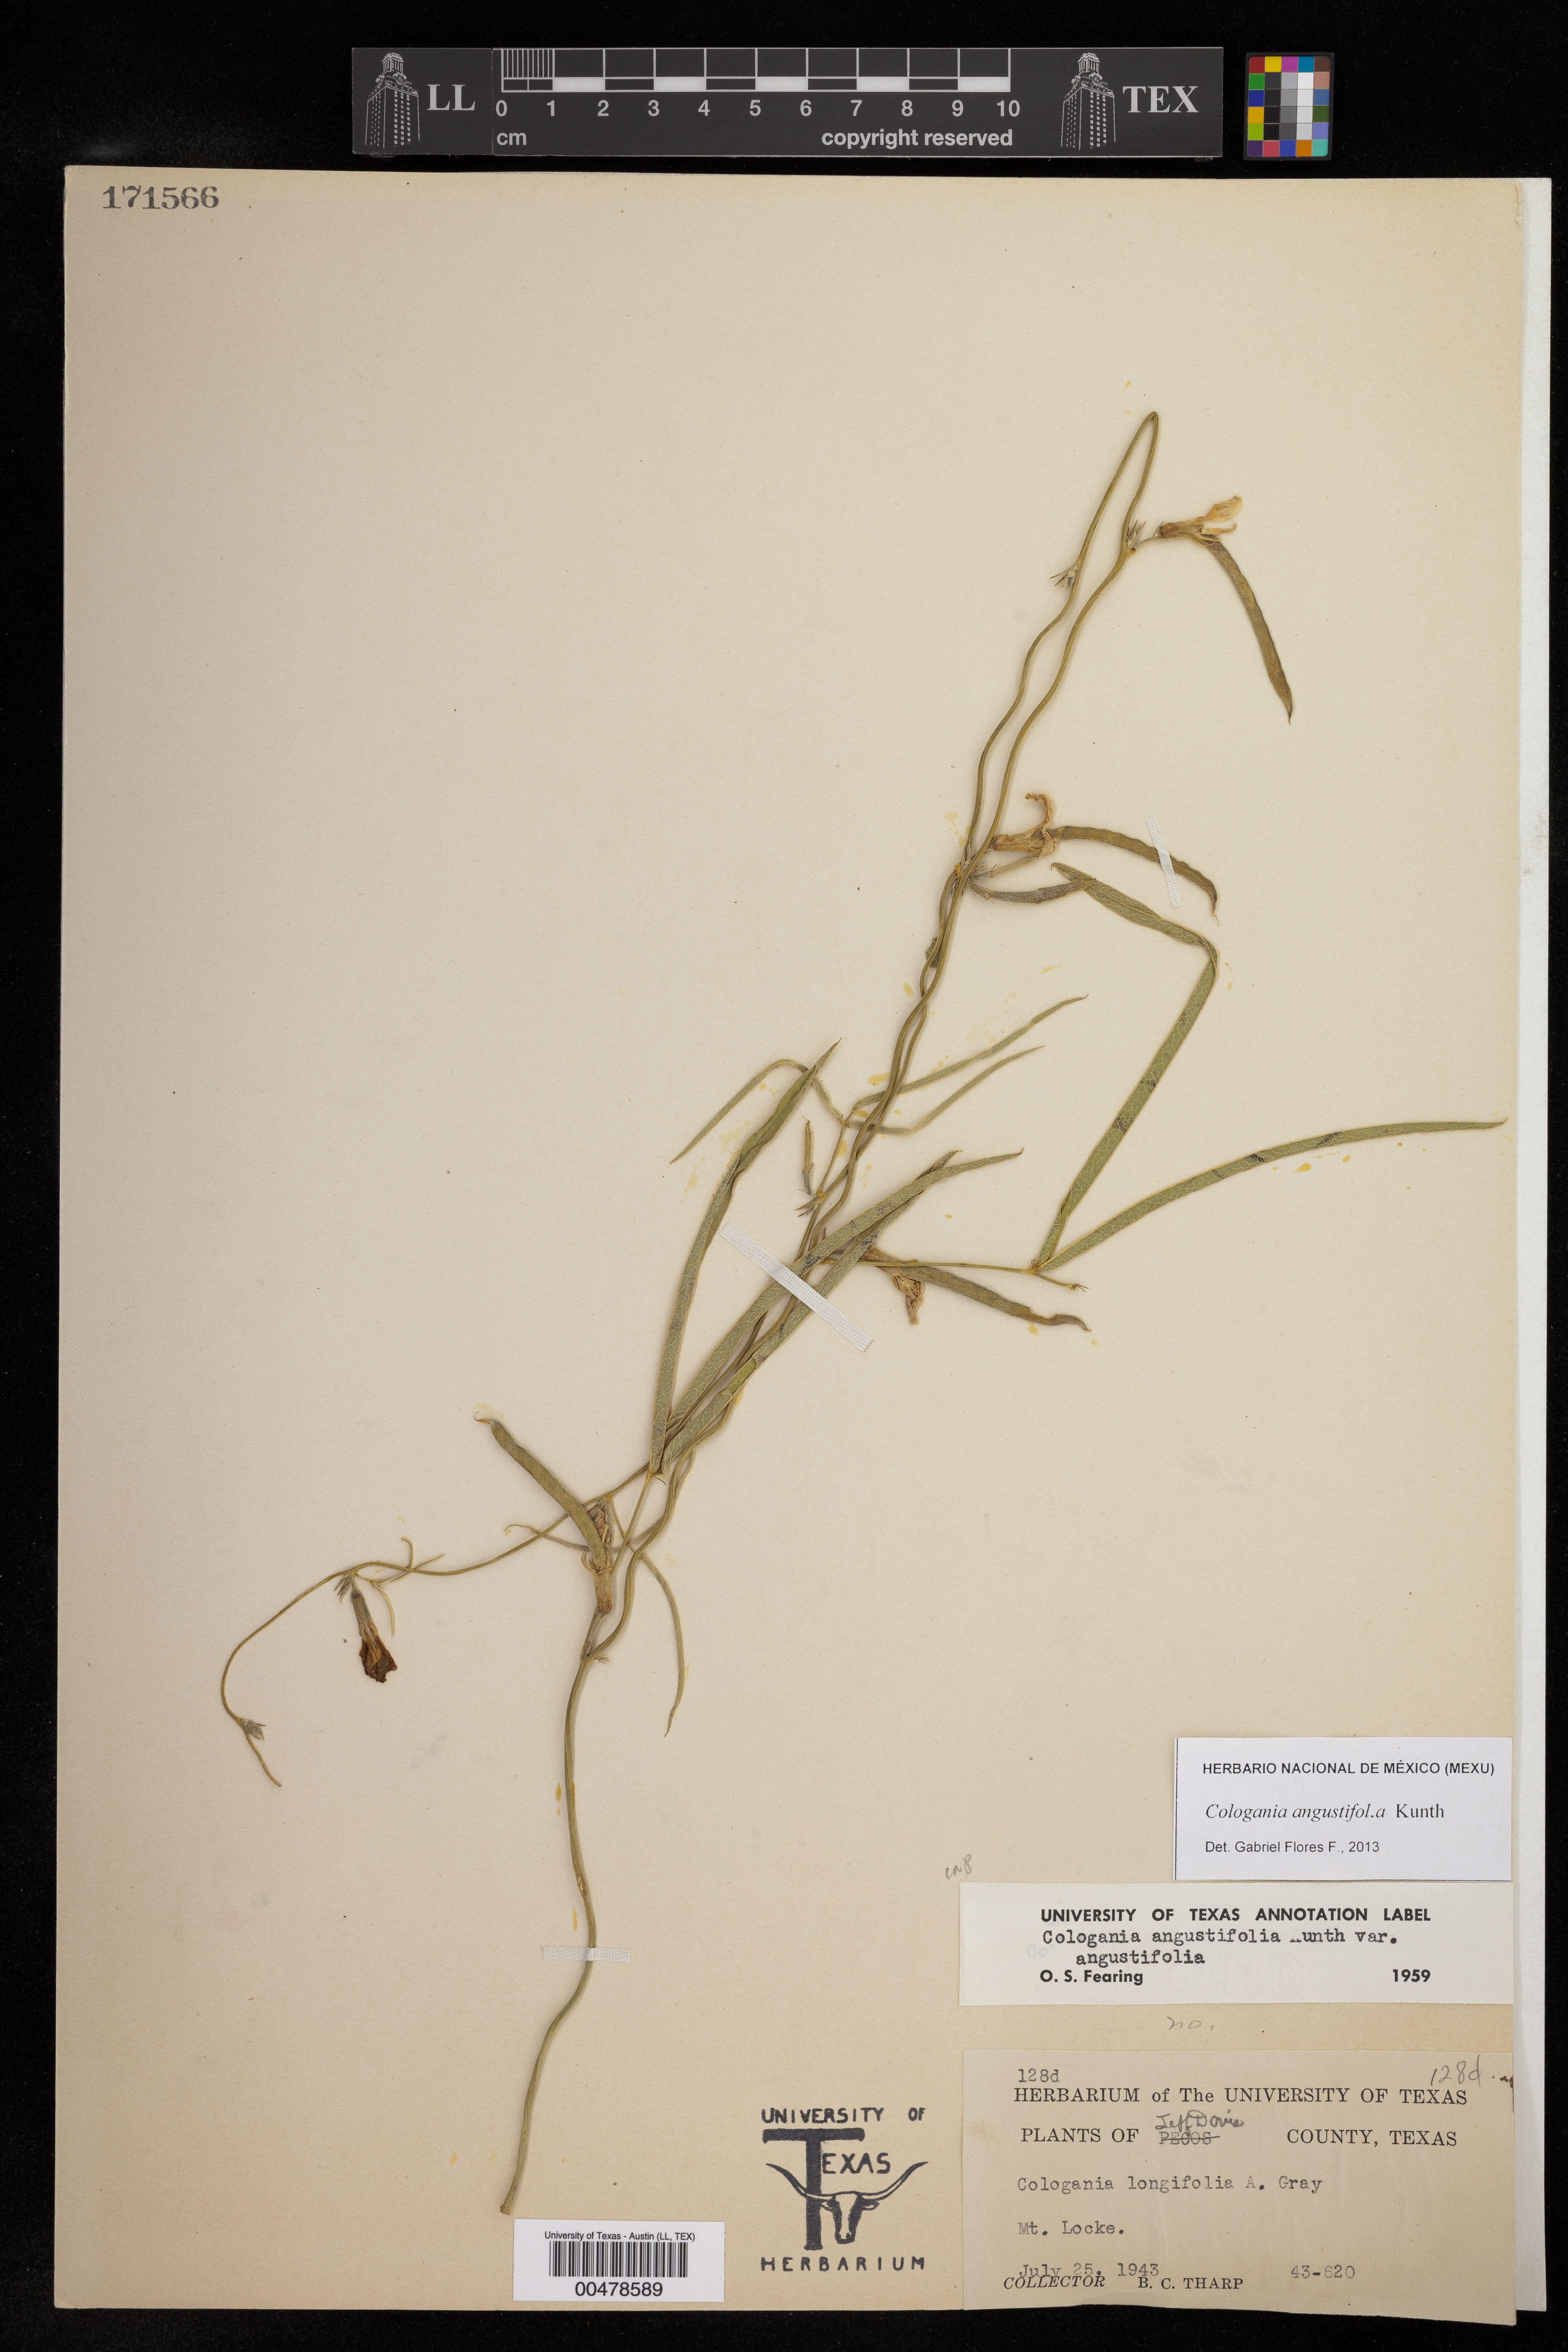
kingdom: Plantae
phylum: Tracheophyta
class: Magnoliopsida
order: Fabales
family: Fabaceae
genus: Cologania
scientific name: Cologania angustifolia
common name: Longleaf cologania
